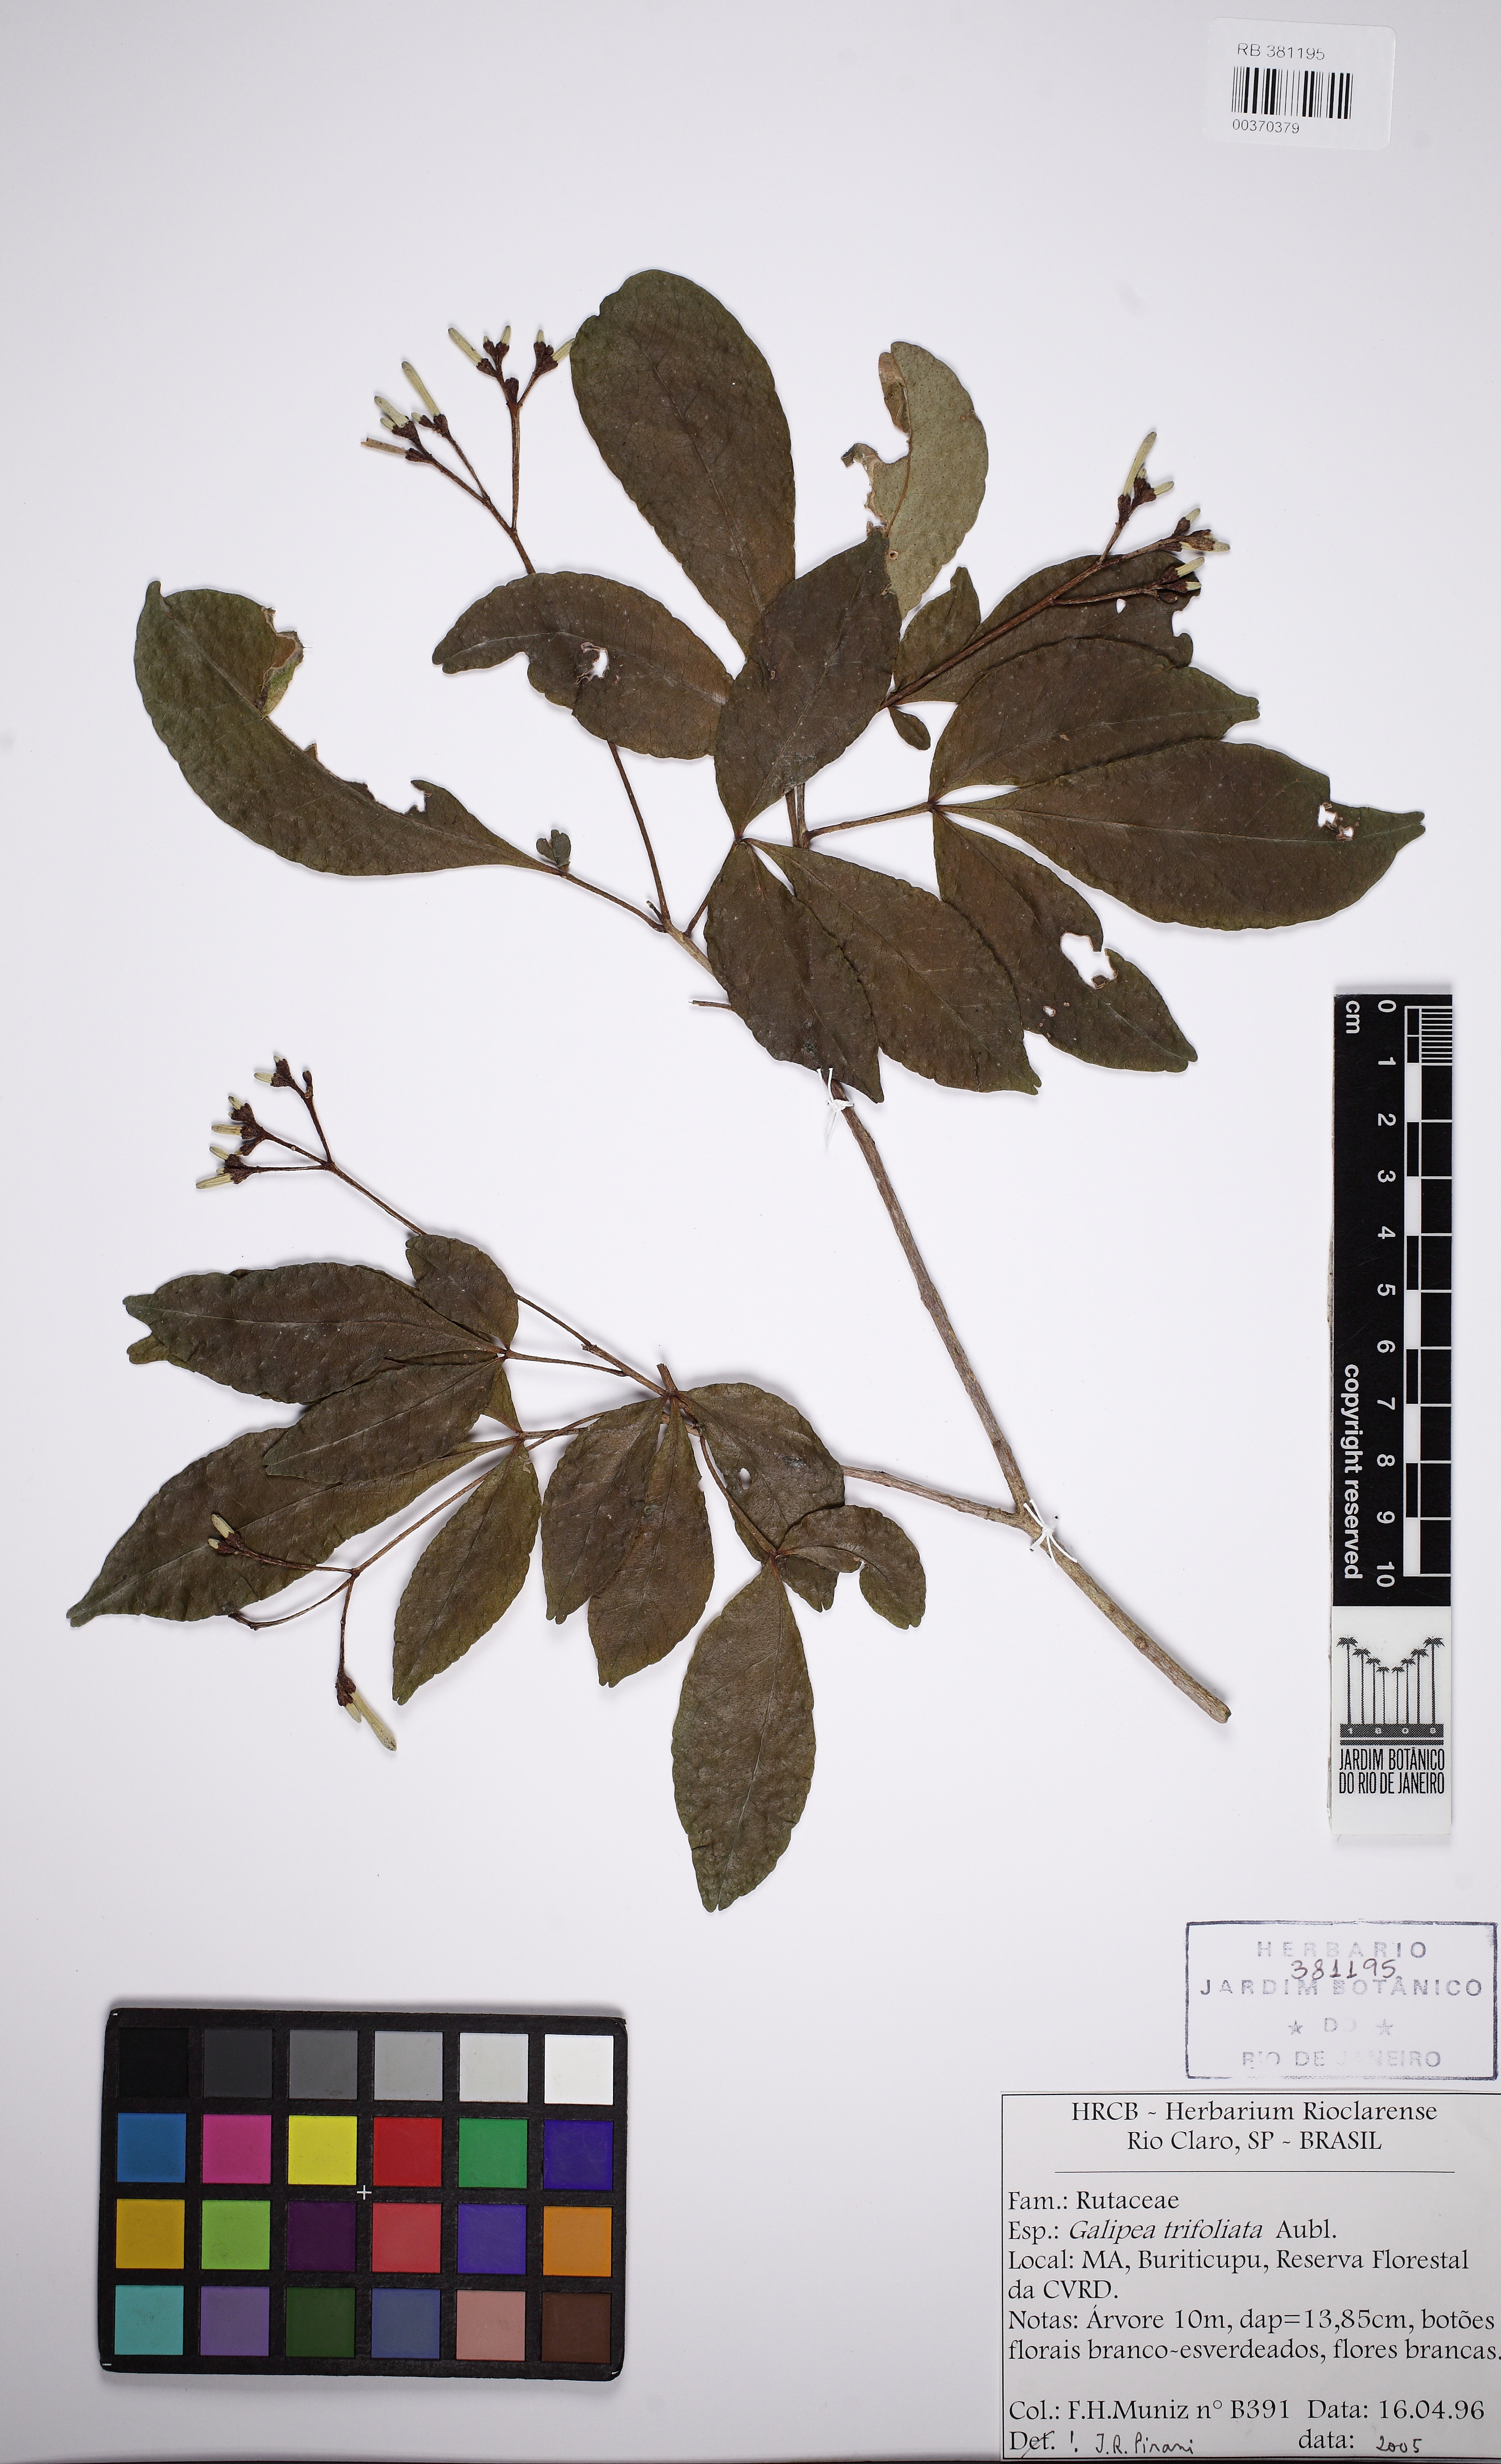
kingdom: Plantae
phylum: Tracheophyta
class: Magnoliopsida
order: Sapindales
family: Rutaceae
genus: Galipea
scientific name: Galipea trifoliata
